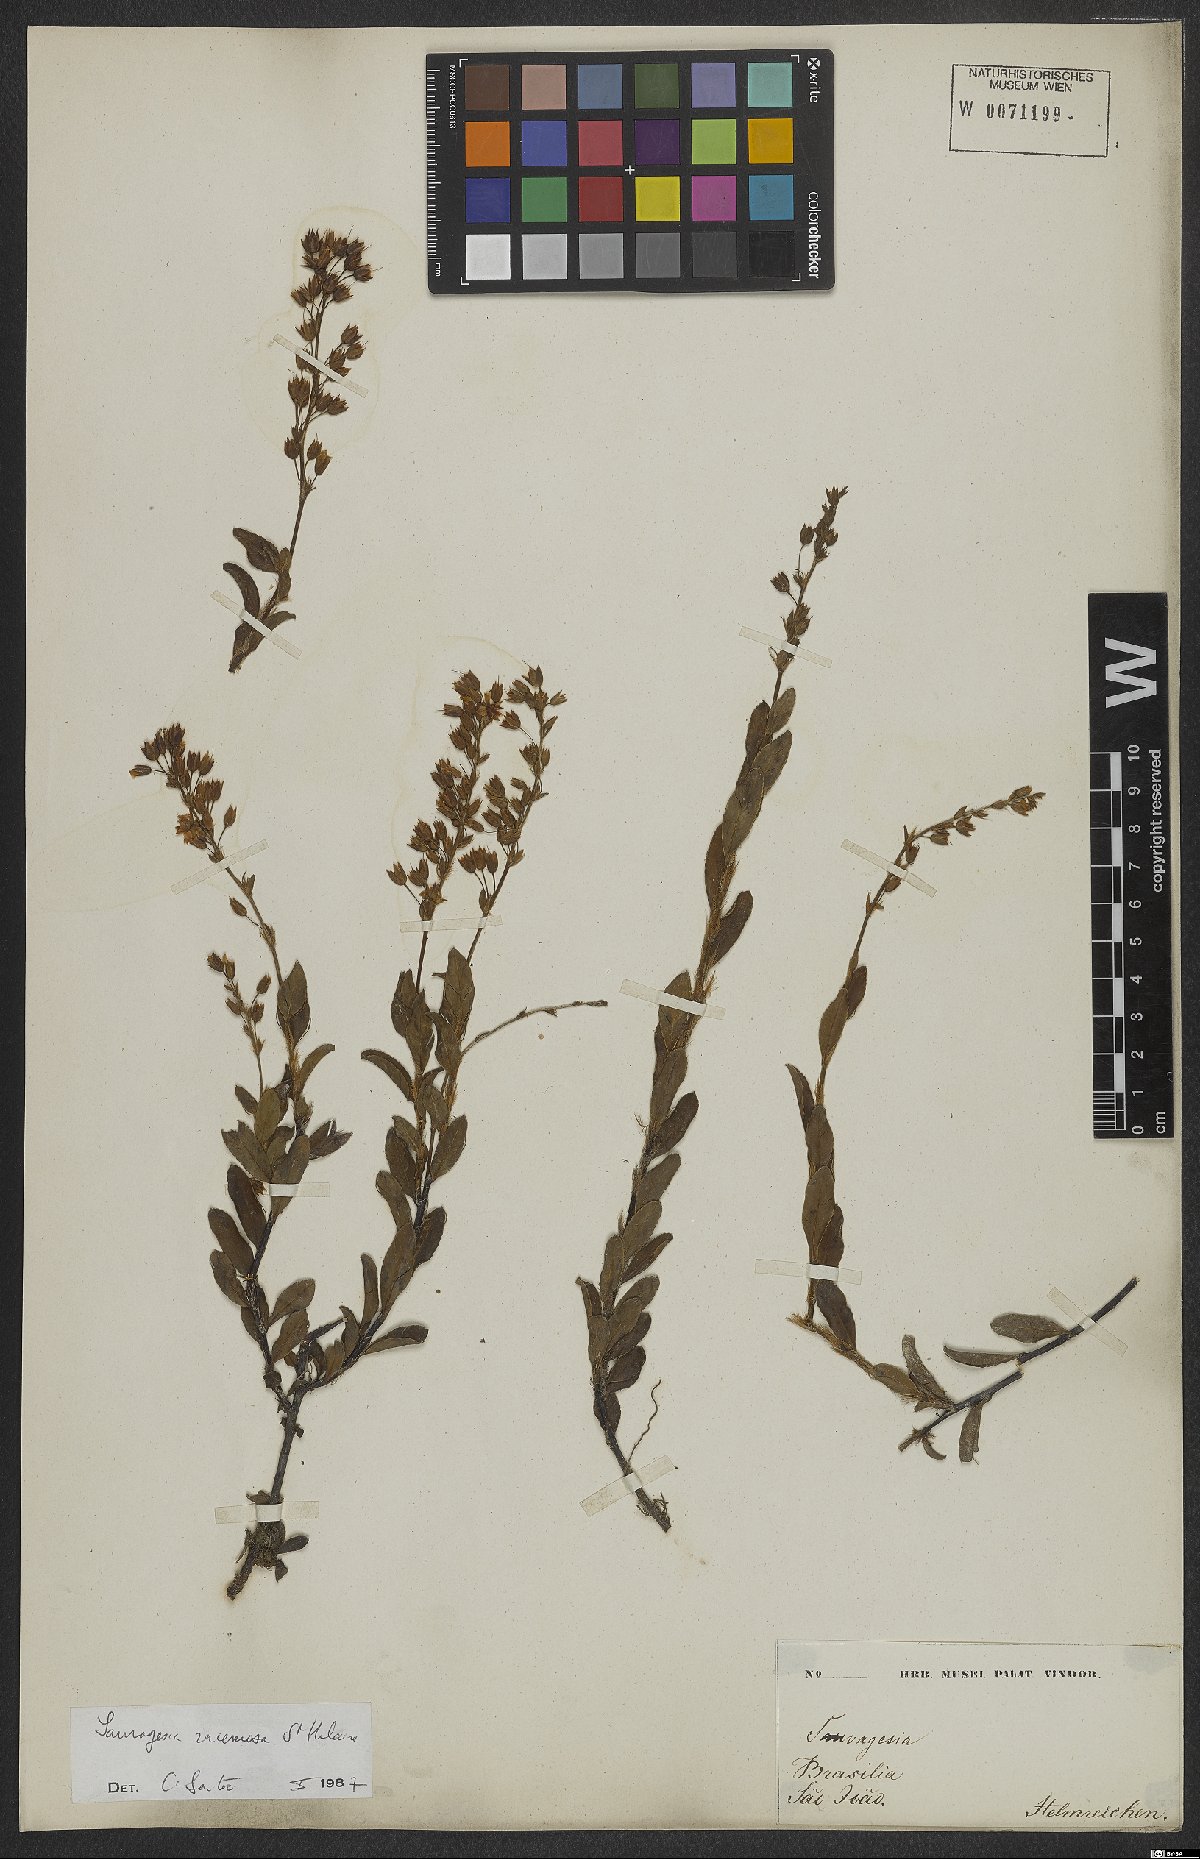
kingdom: Plantae
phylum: Tracheophyta
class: Magnoliopsida
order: Malpighiales
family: Ochnaceae
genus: Sauvagesia
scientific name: Sauvagesia racemosa
